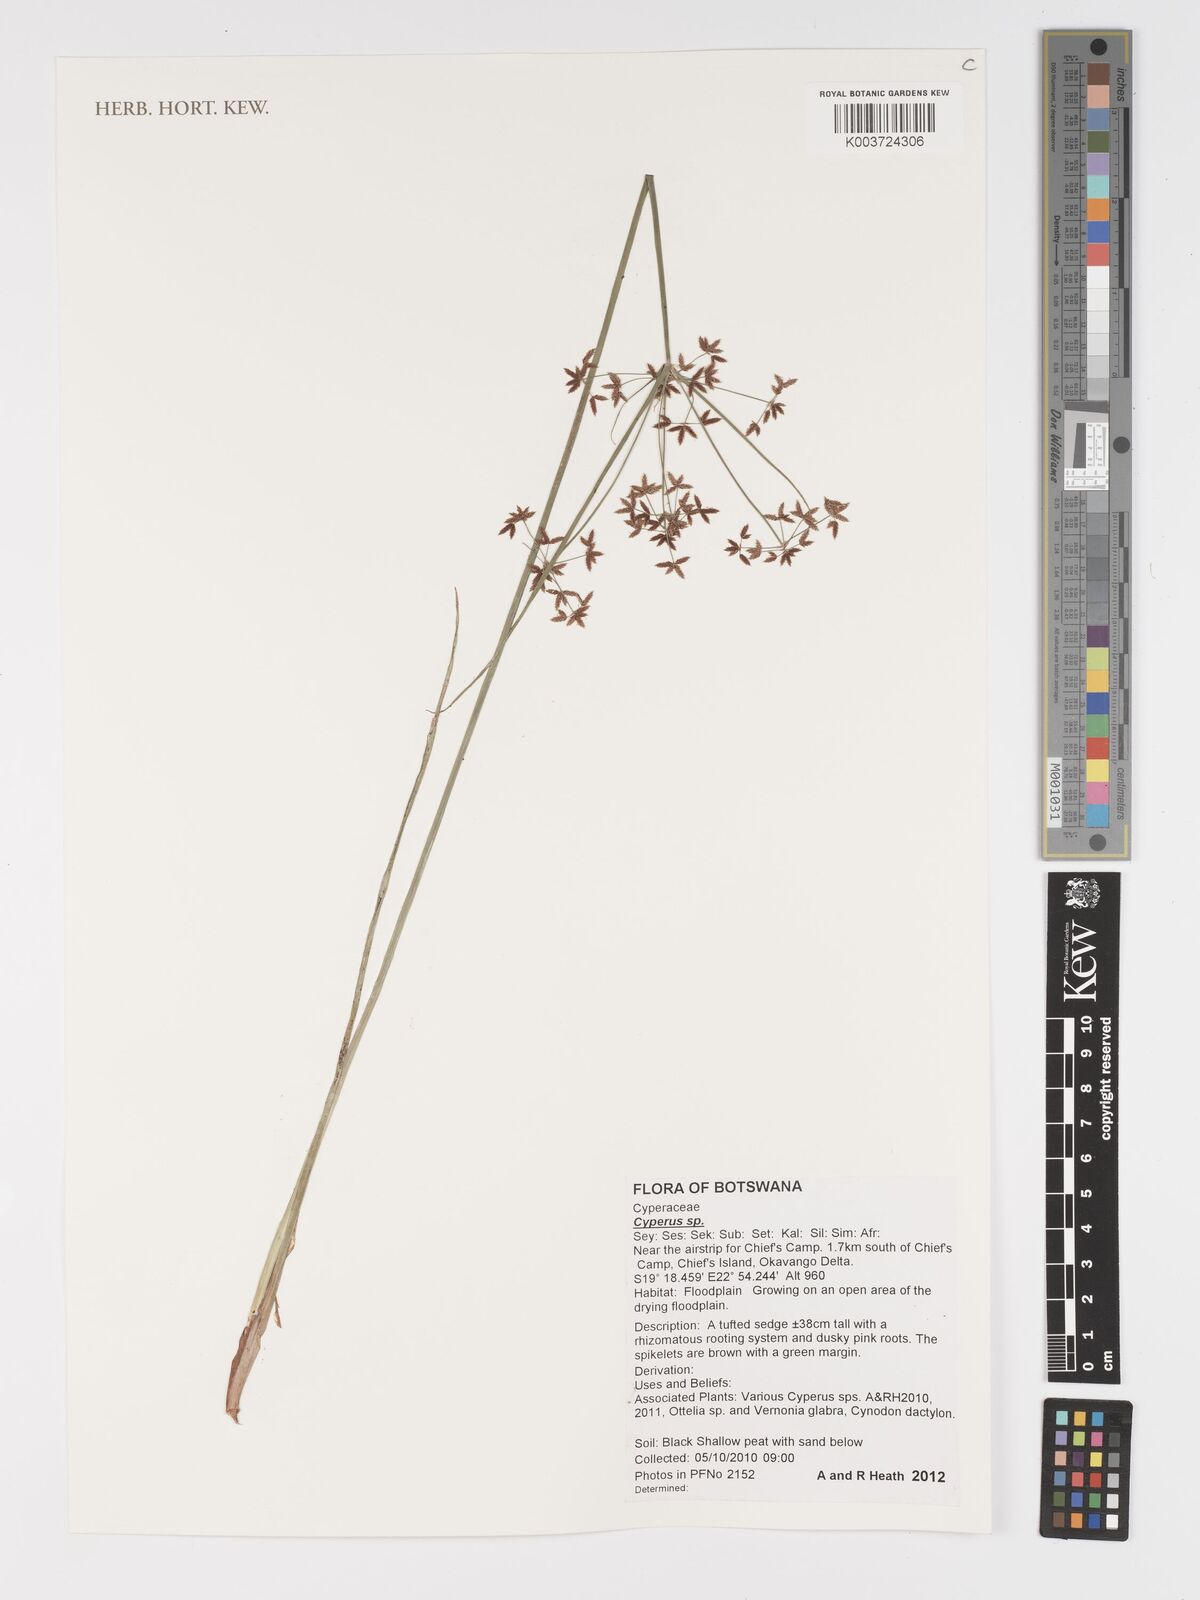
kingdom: Plantae
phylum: Tracheophyta
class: Liliopsida
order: Poales
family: Cyperaceae
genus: Cyperus
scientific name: Cyperus
